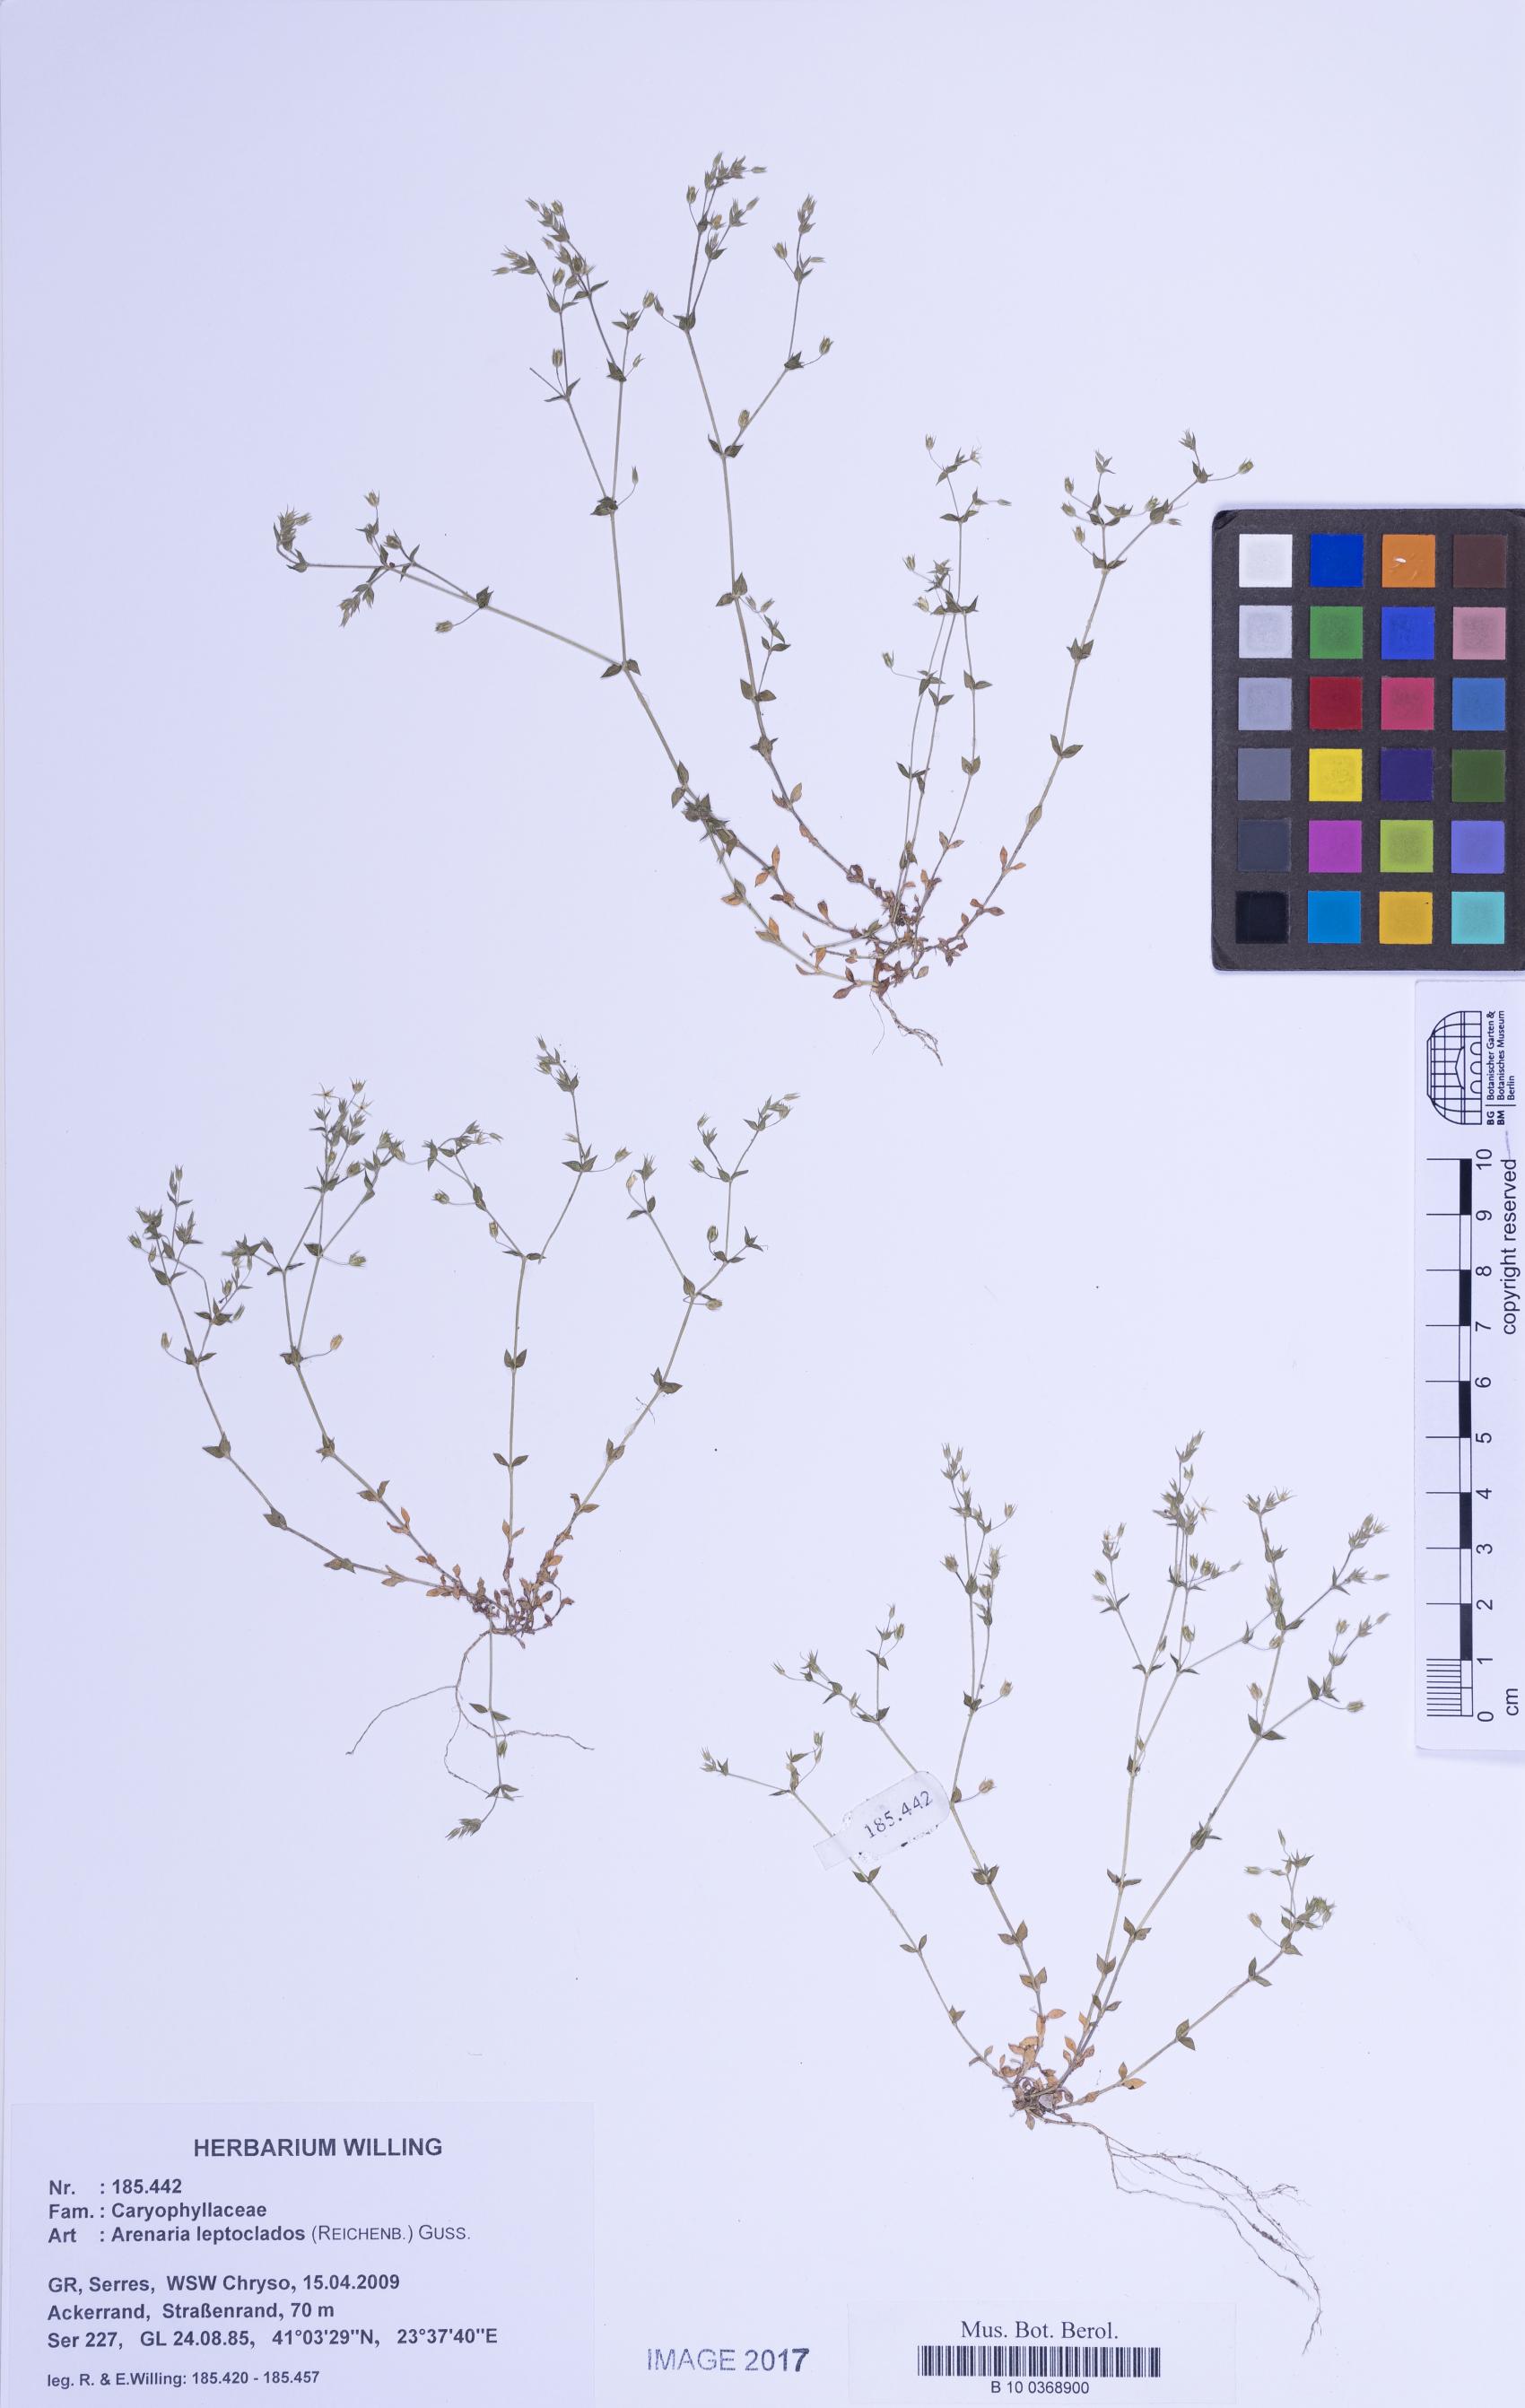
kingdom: Plantae
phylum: Tracheophyta
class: Magnoliopsida
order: Caryophyllales
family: Caryophyllaceae
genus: Arenaria
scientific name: Arenaria leptoclados
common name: Thyme-leaved sandwort
